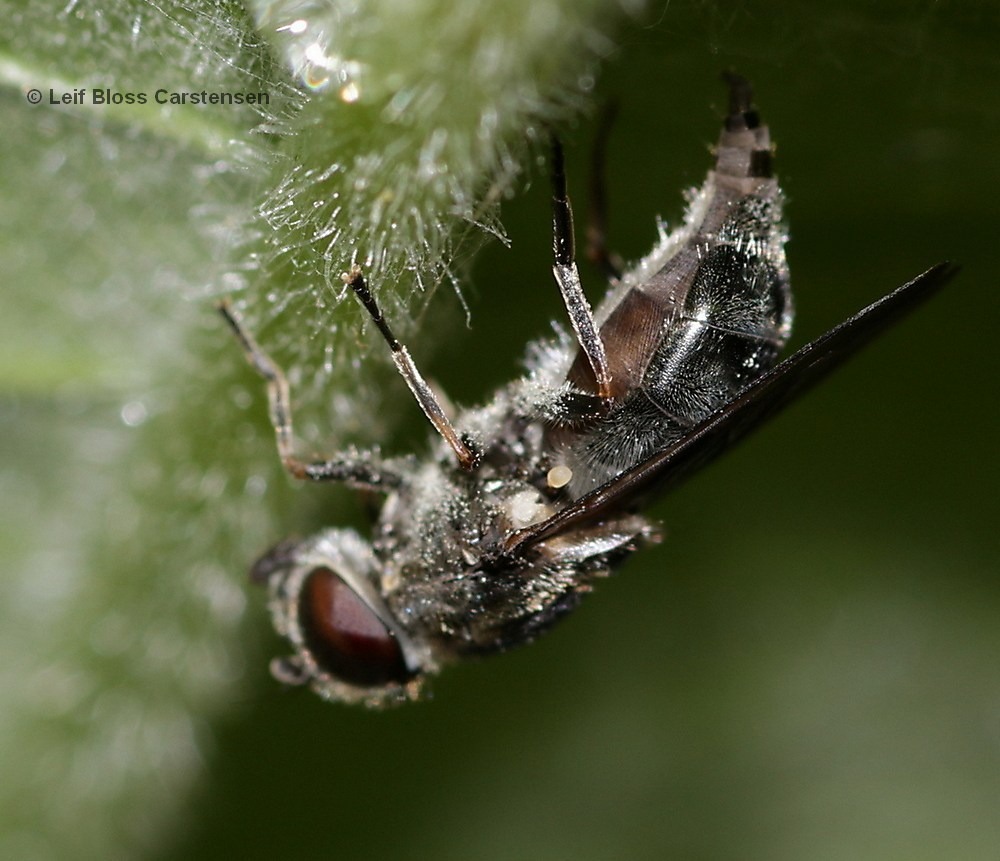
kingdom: Animalia
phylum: Arthropoda
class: Insecta
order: Diptera
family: Syrphidae
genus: Cheilosia
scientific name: Cheilosia vulpina
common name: Artiskok-urtesvirreflue
